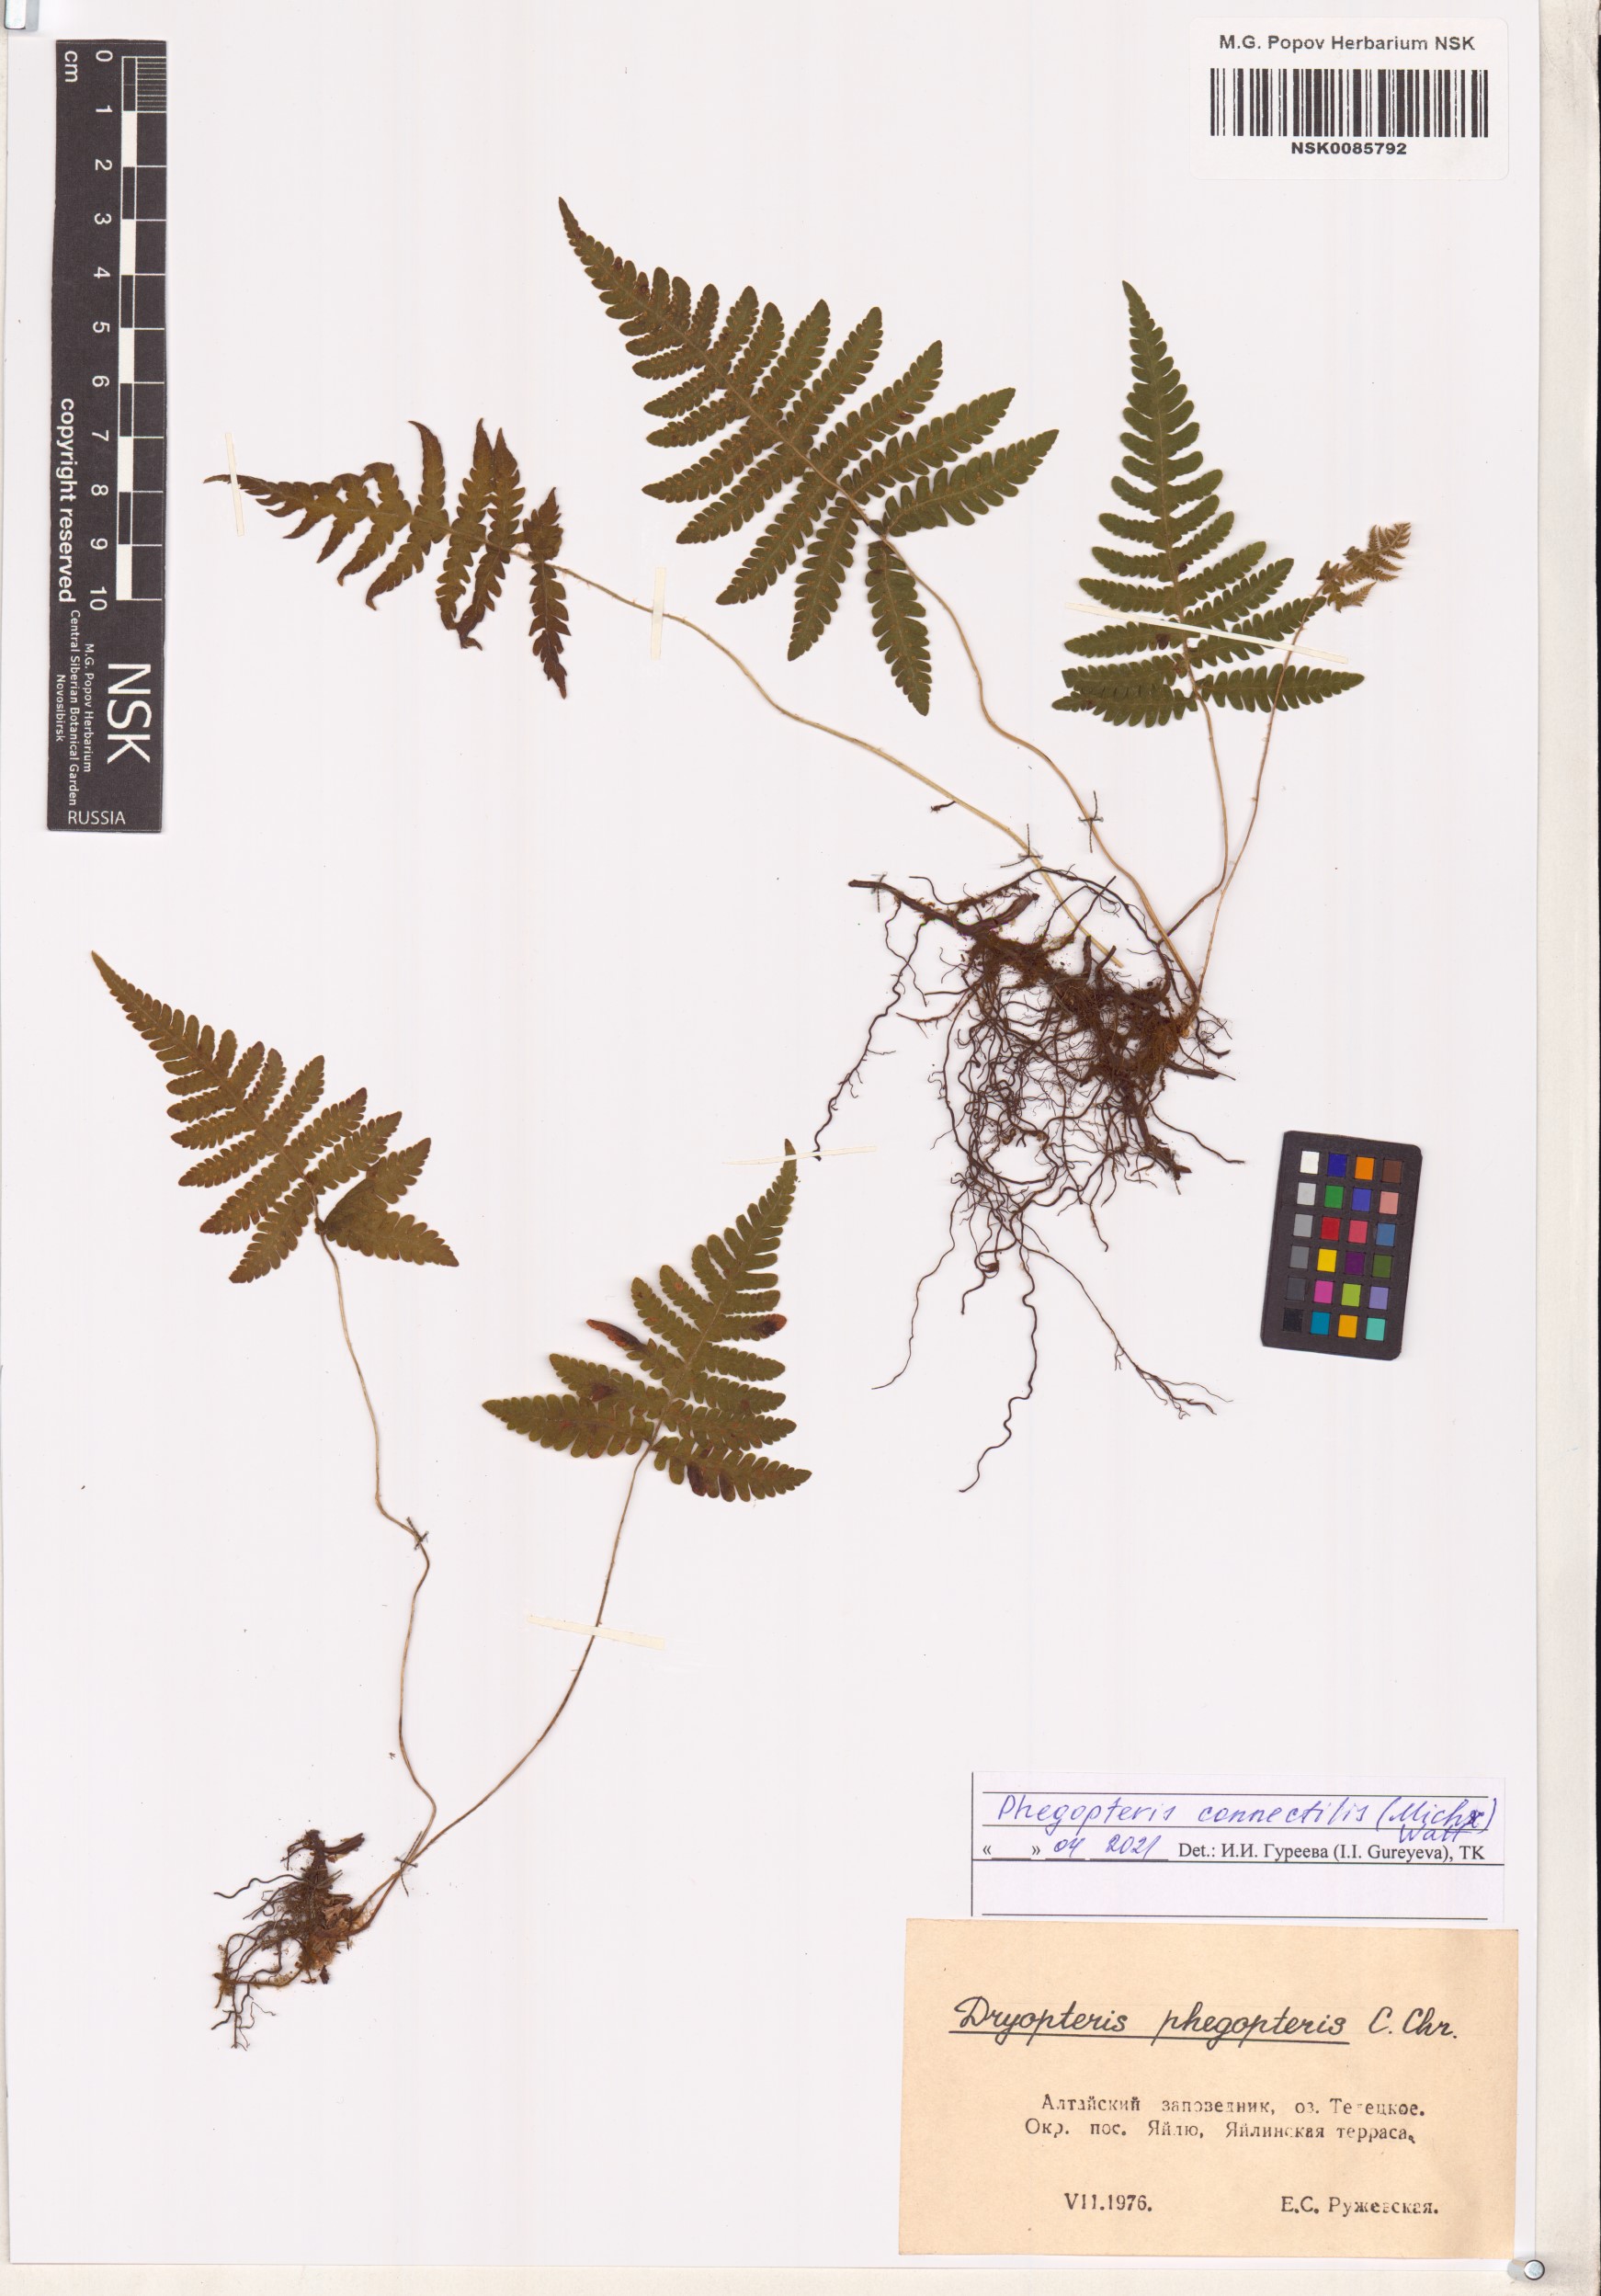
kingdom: Plantae
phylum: Tracheophyta
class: Polypodiopsida
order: Polypodiales
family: Thelypteridaceae
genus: Phegopteris
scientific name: Phegopteris connectilis
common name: Beech fern
